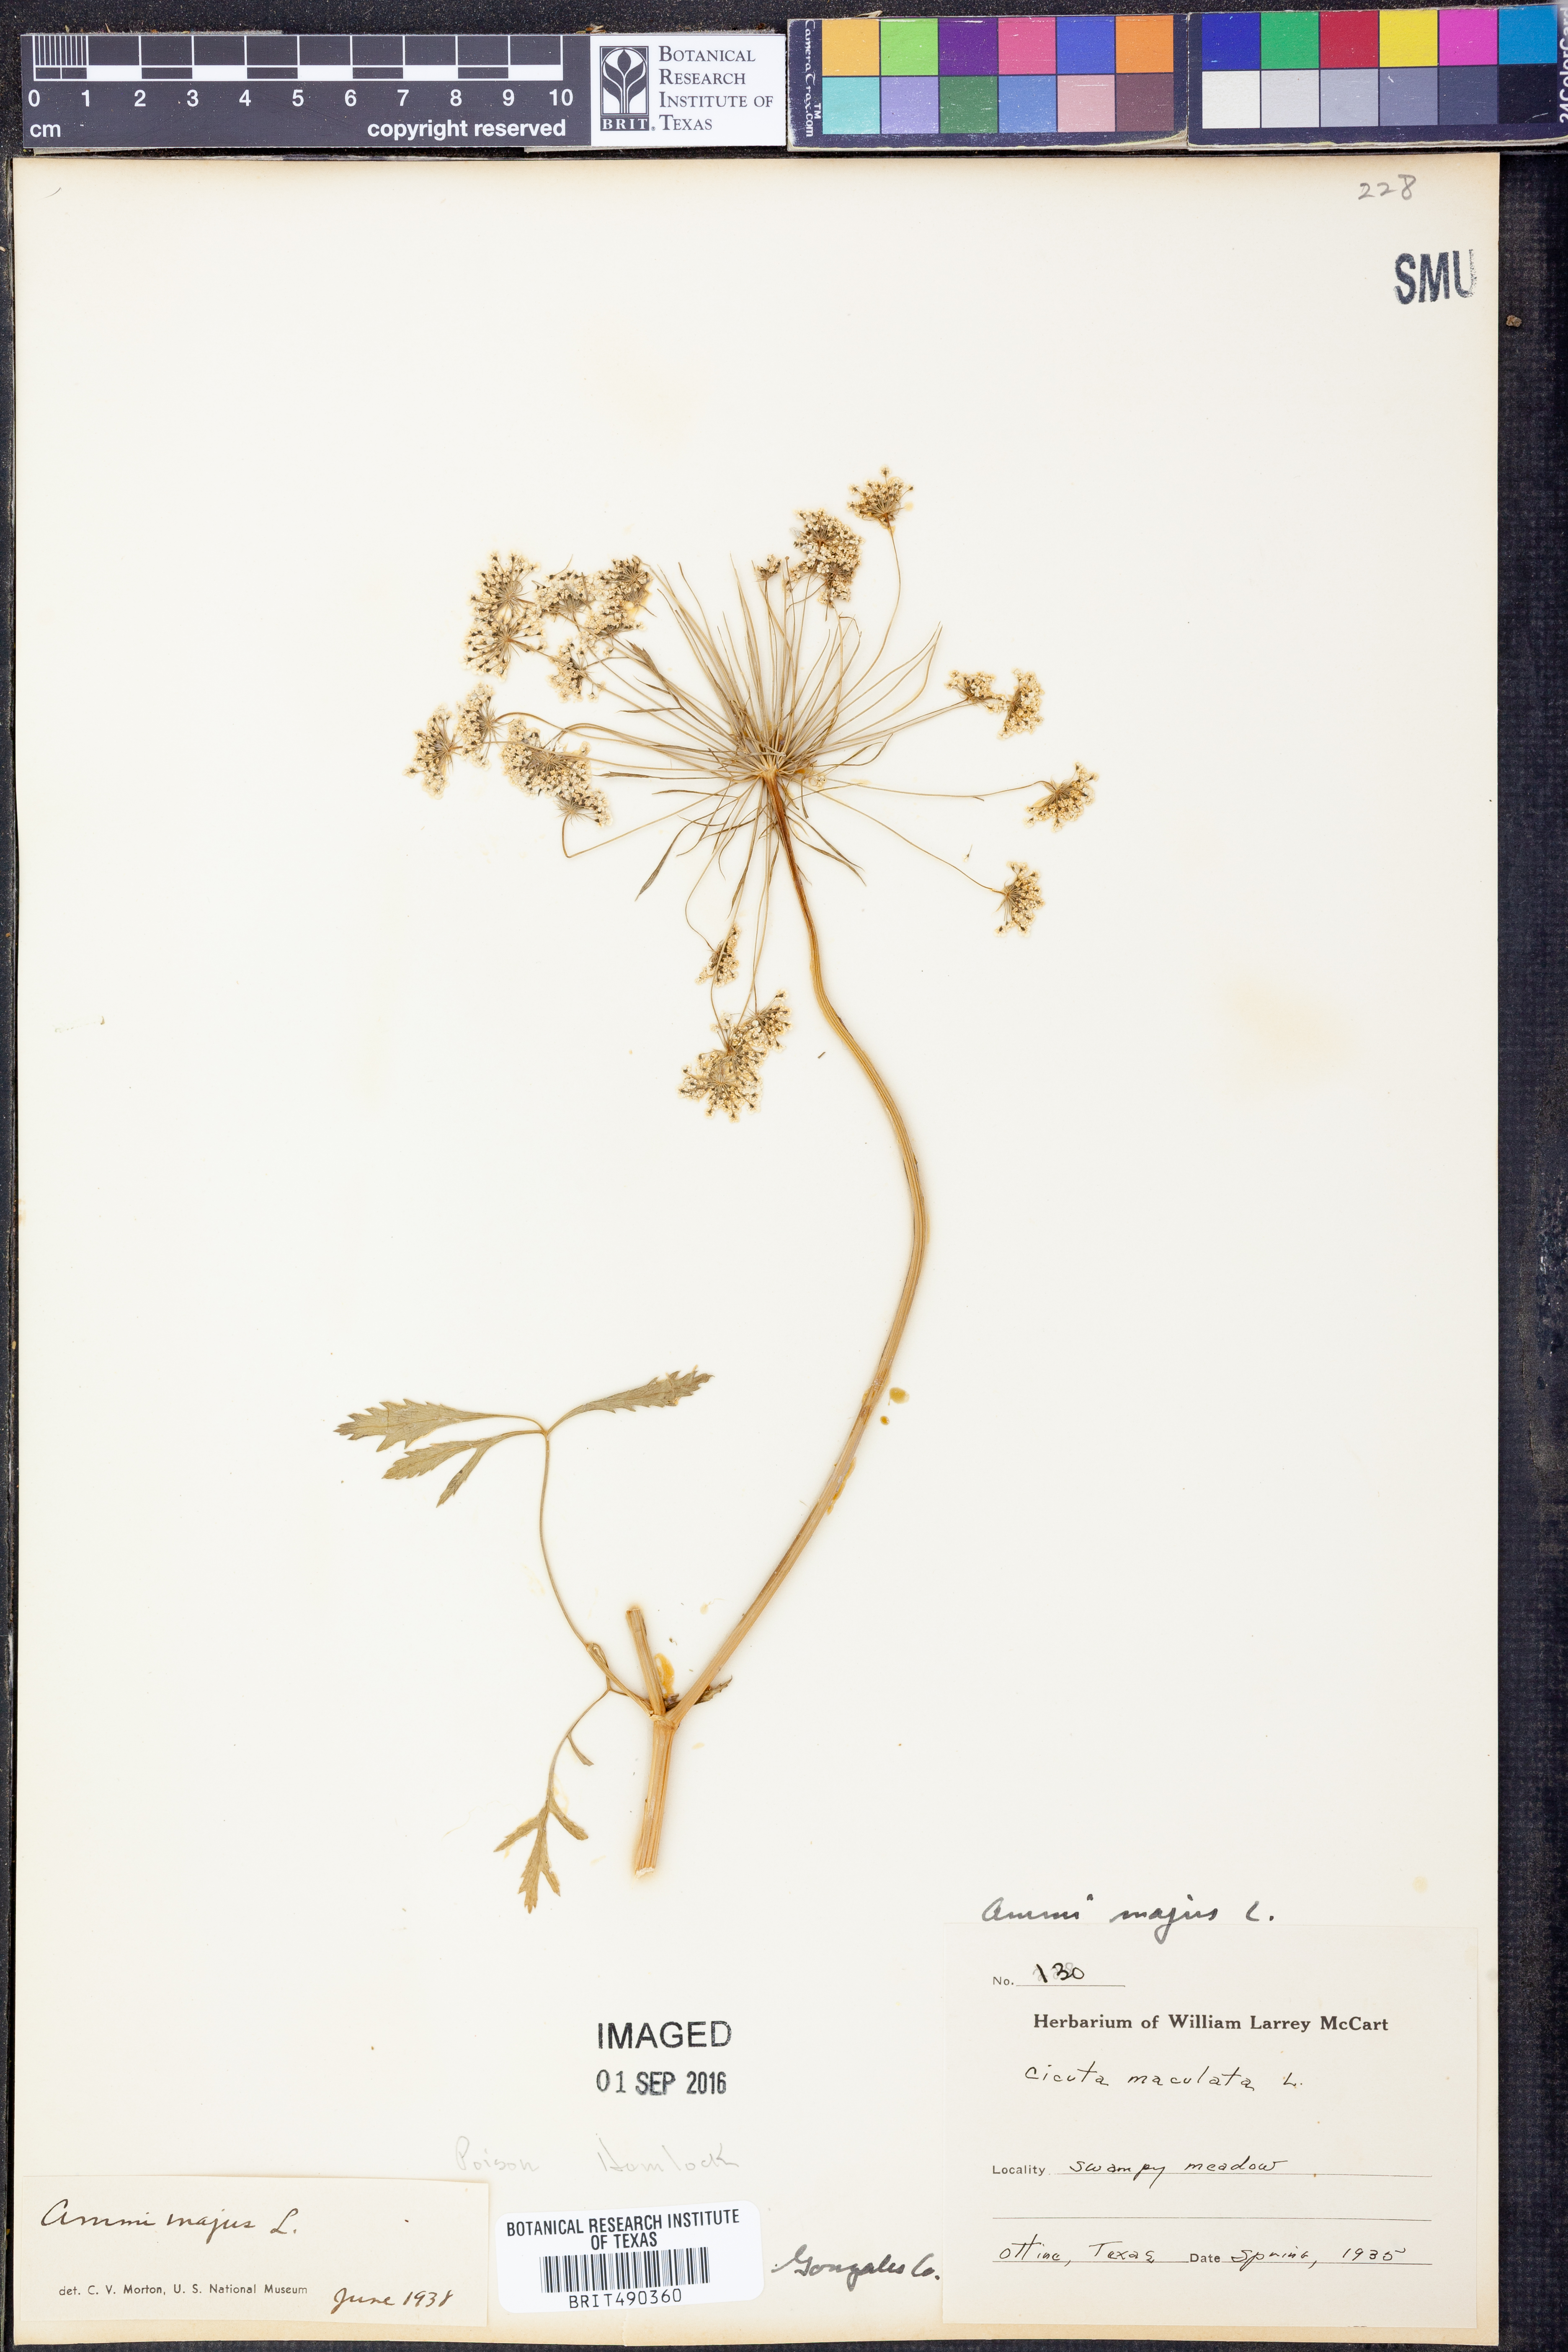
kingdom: Plantae
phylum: Tracheophyta
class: Magnoliopsida
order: Apiales
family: Apiaceae
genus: Ammi
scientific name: Ammi majus
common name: Bullwort
